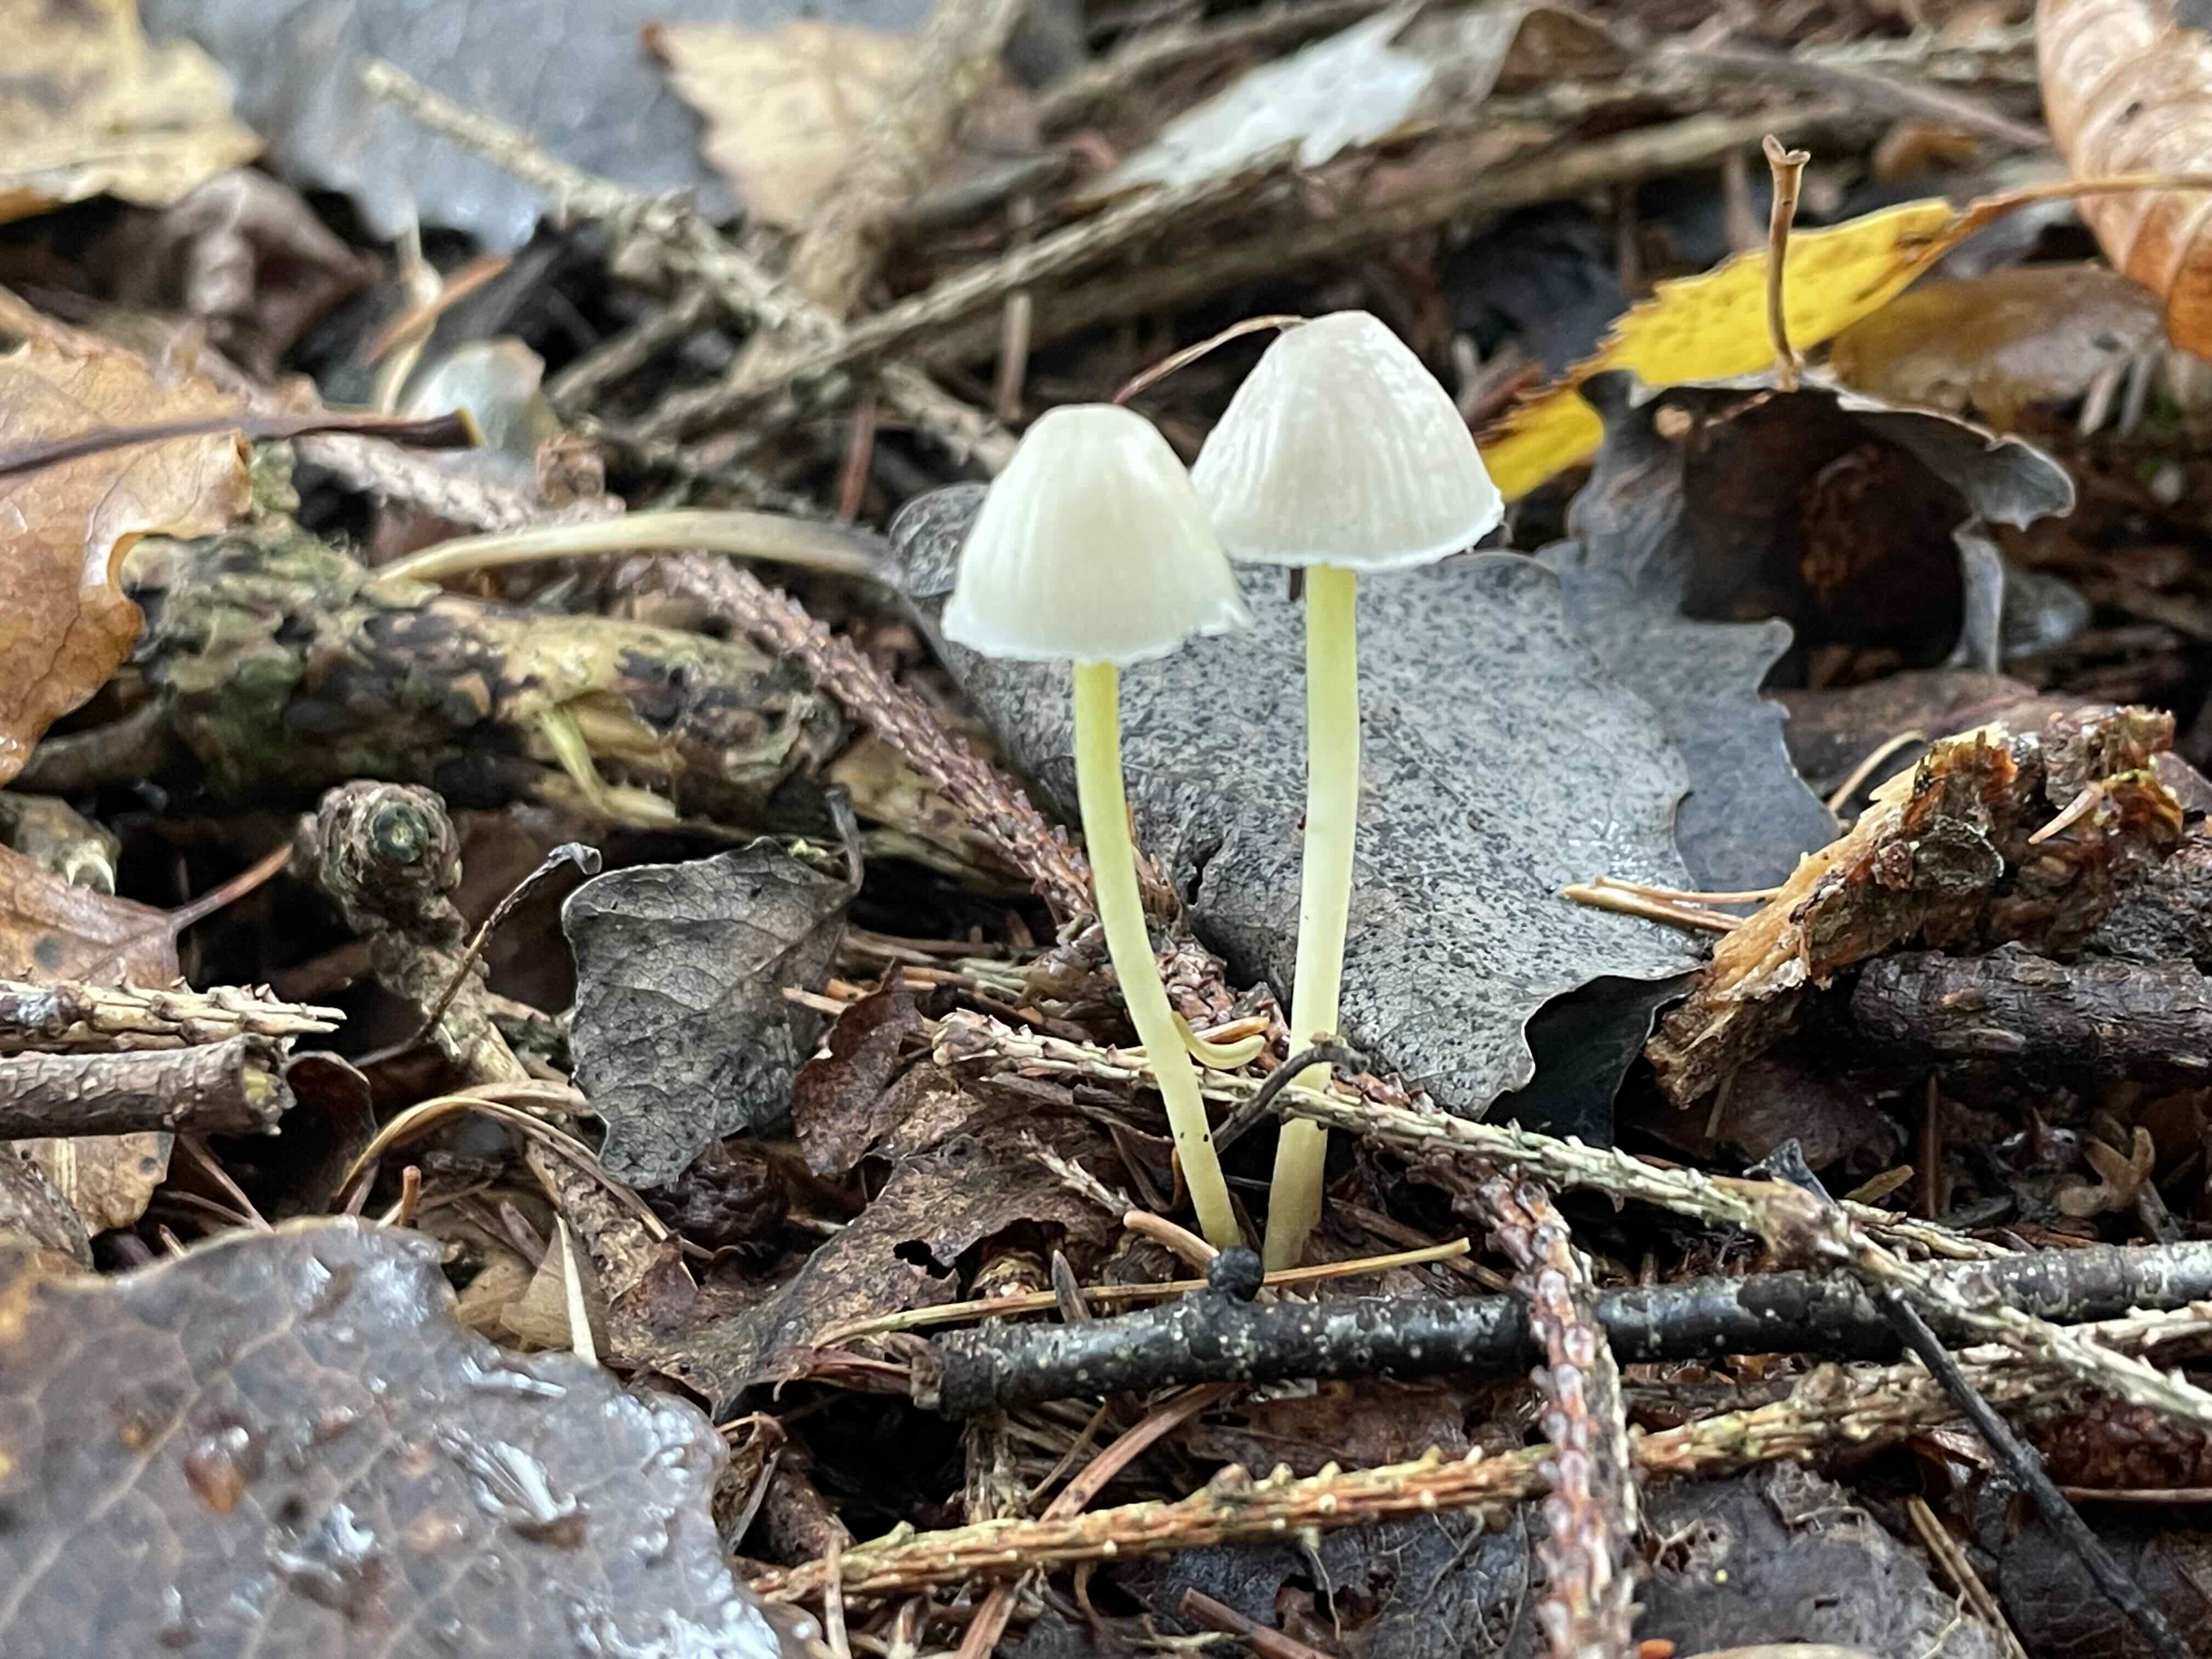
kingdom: Fungi
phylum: Basidiomycota
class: Agaricomycetes
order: Agaricales
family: Mycenaceae
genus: Mycena
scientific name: Mycena epipterygia
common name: gulstokket huesvamp
